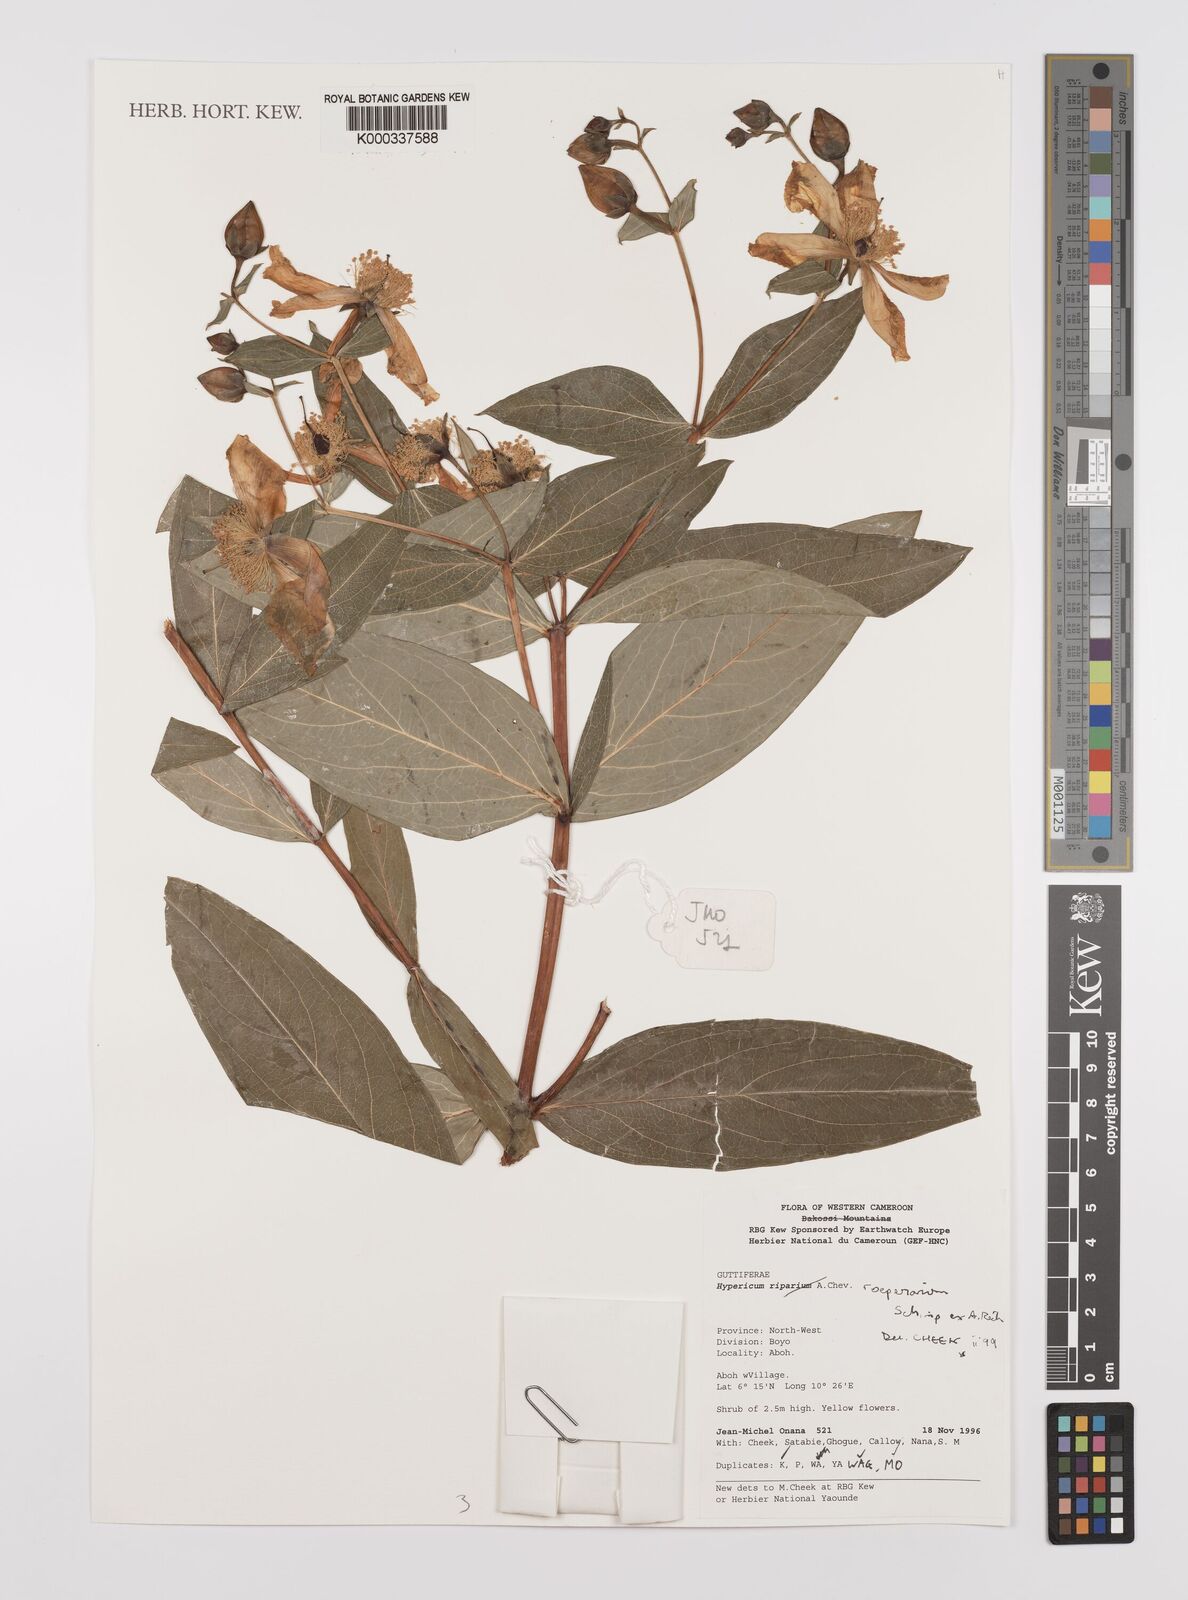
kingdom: Plantae
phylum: Tracheophyta
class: Magnoliopsida
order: Malpighiales
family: Hypericaceae
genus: Hypericum
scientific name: Hypericum
